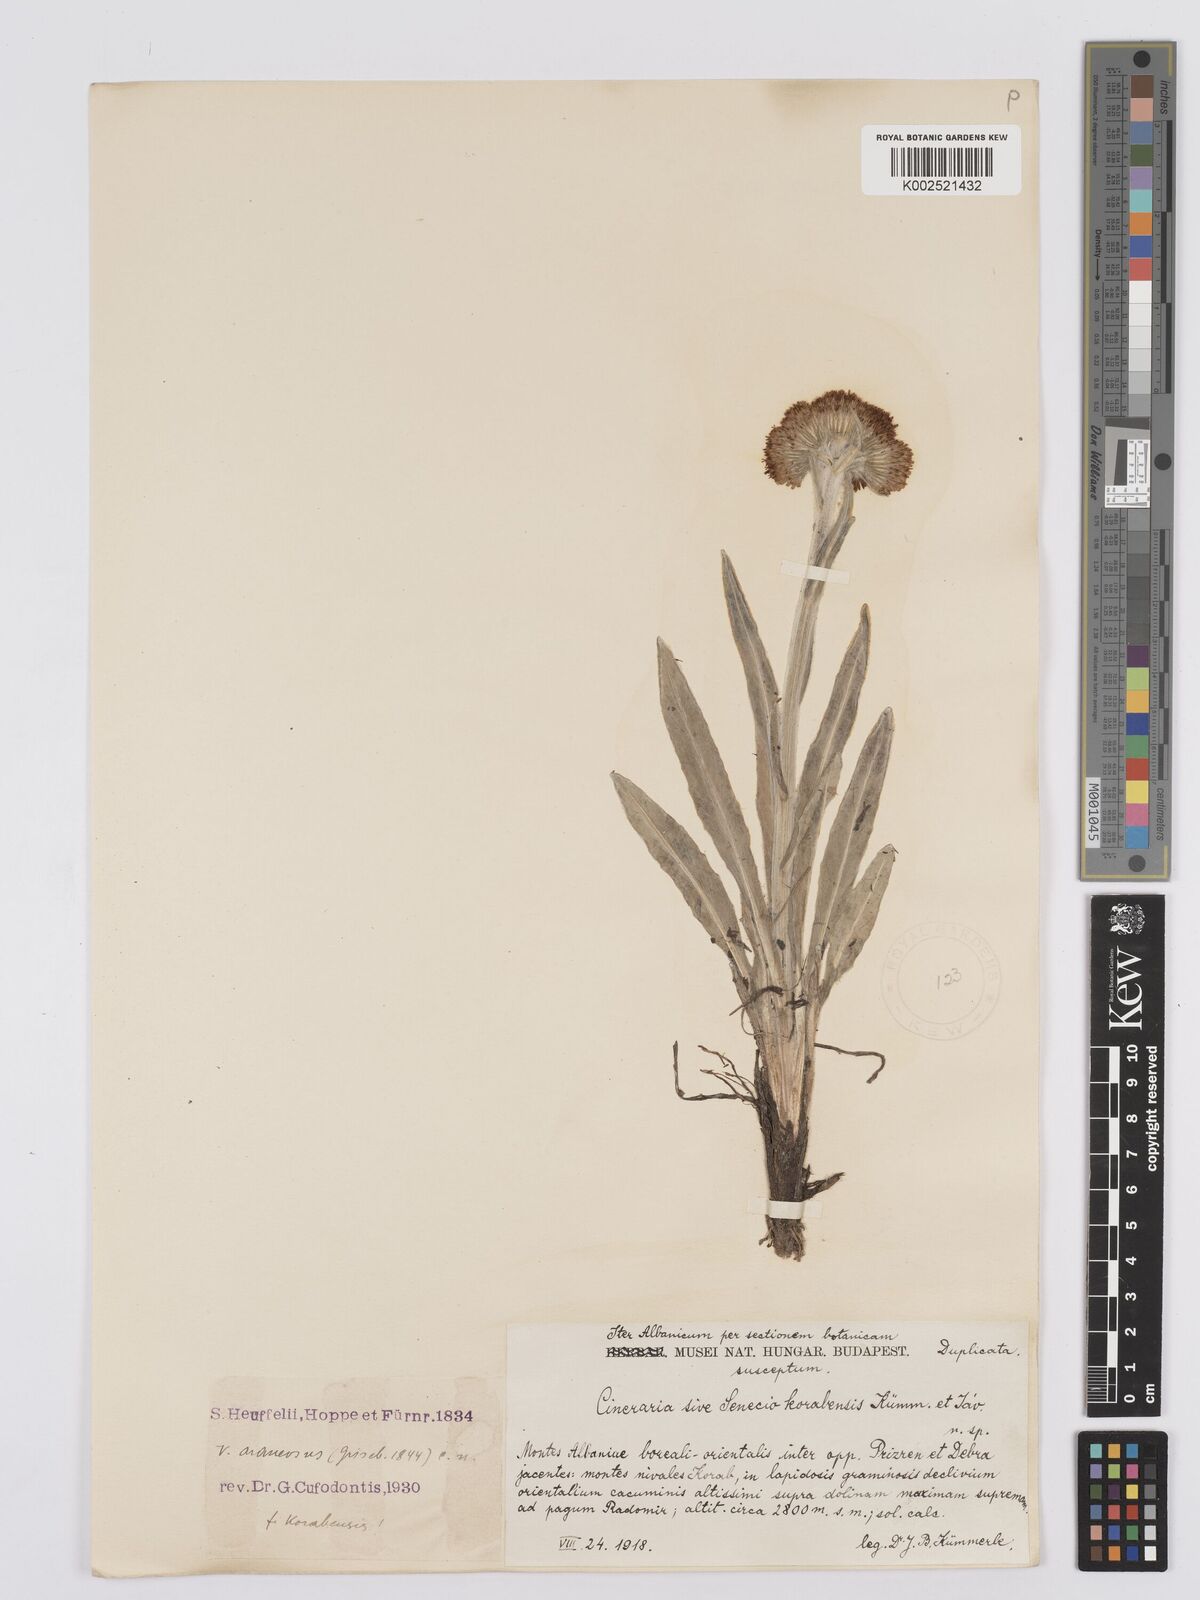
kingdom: Plantae
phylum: Tracheophyta
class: Magnoliopsida
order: Asterales
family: Asteraceae
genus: Tephroseris
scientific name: Tephroseris integrifolia
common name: Field fleawort
